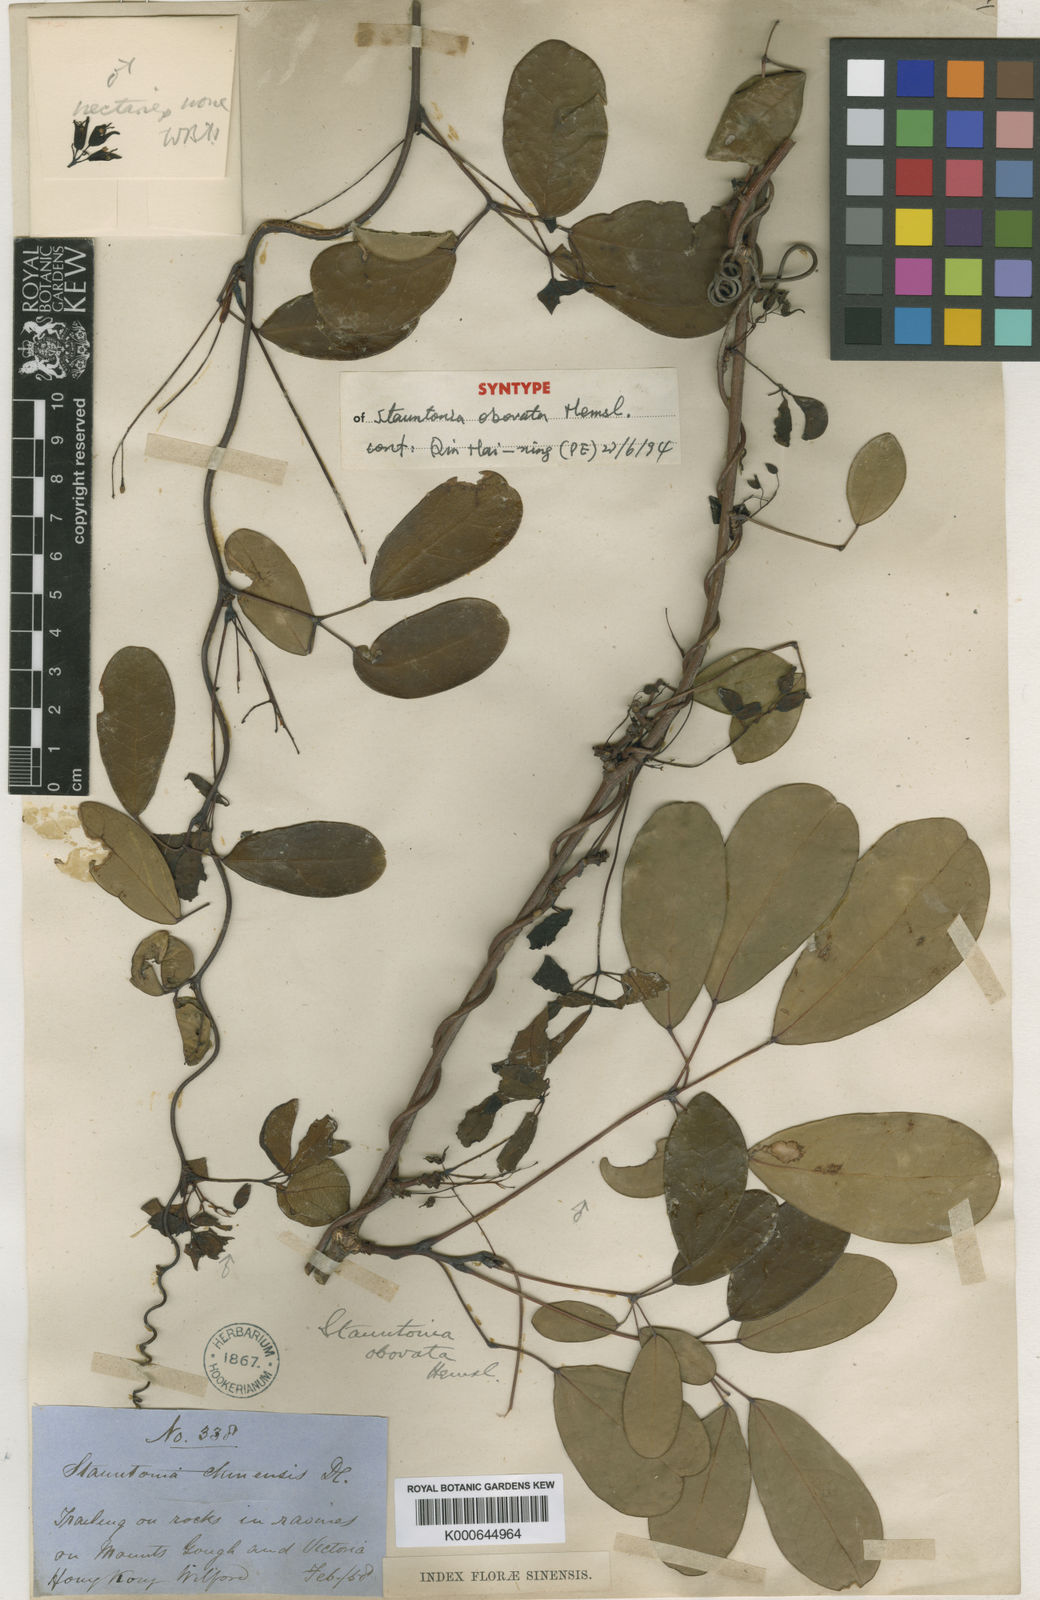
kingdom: Plantae
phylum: Tracheophyta
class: Magnoliopsida
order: Ranunculales
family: Lardizabalaceae
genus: Stauntonia
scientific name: Stauntonia obovata
